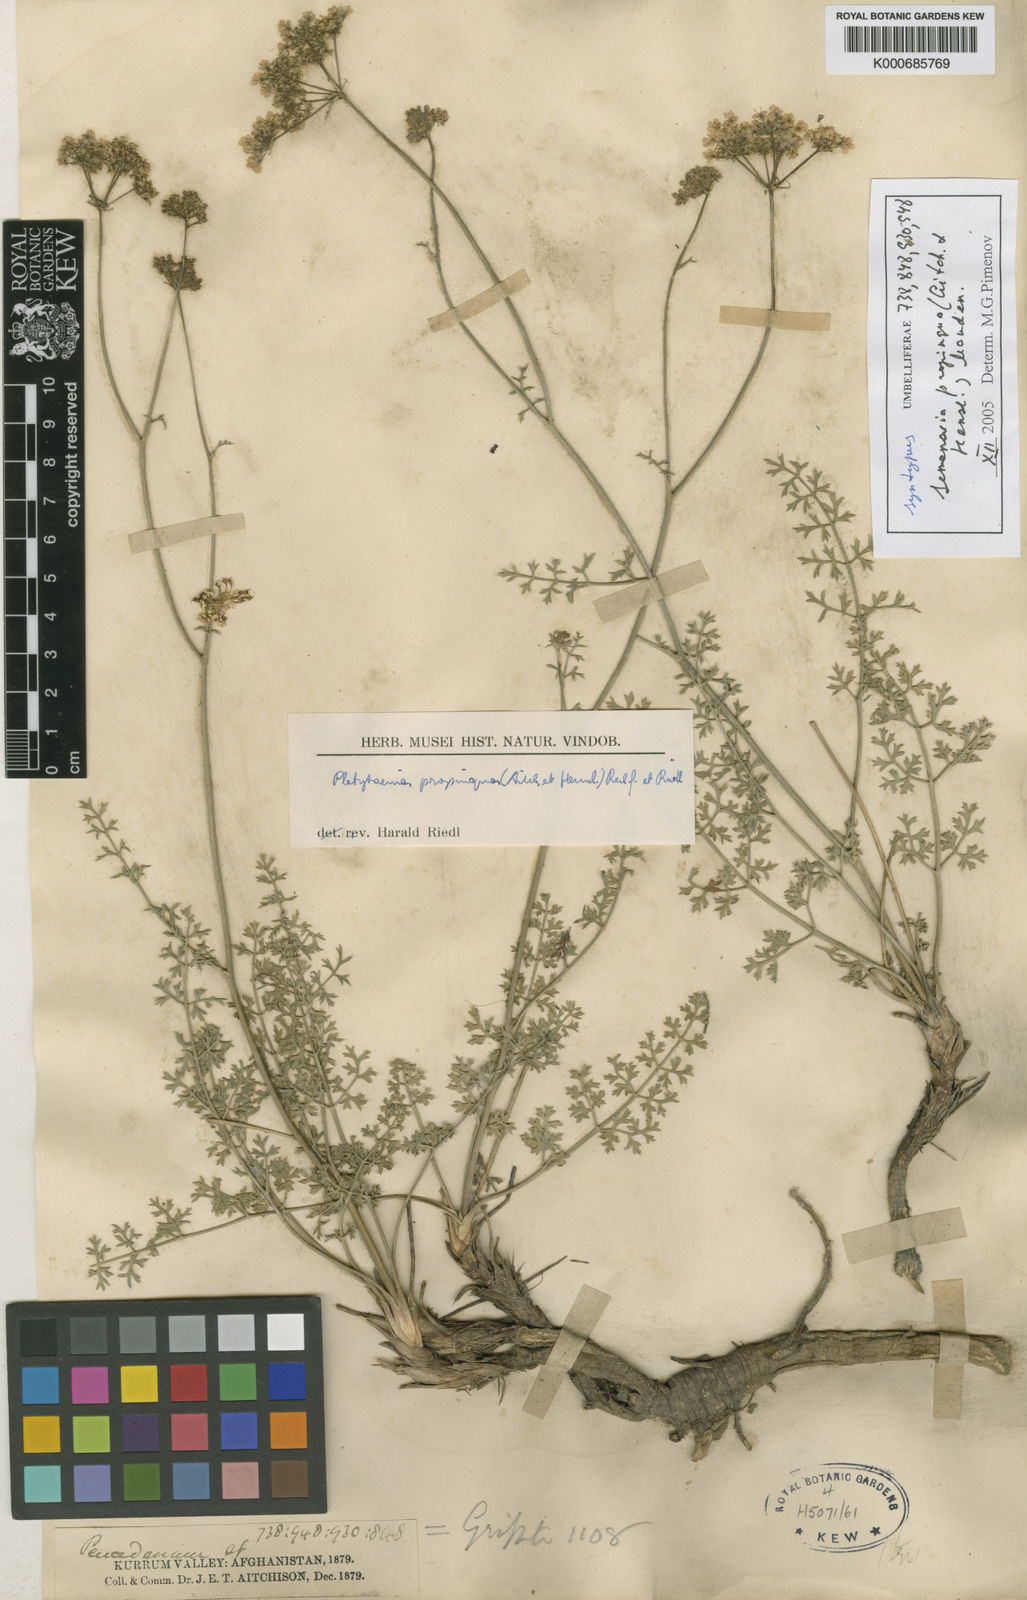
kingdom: Plantae
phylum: Tracheophyta
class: Magnoliopsida
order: Apiales
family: Apiaceae
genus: Semenovia
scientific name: Semenovia propinqua
